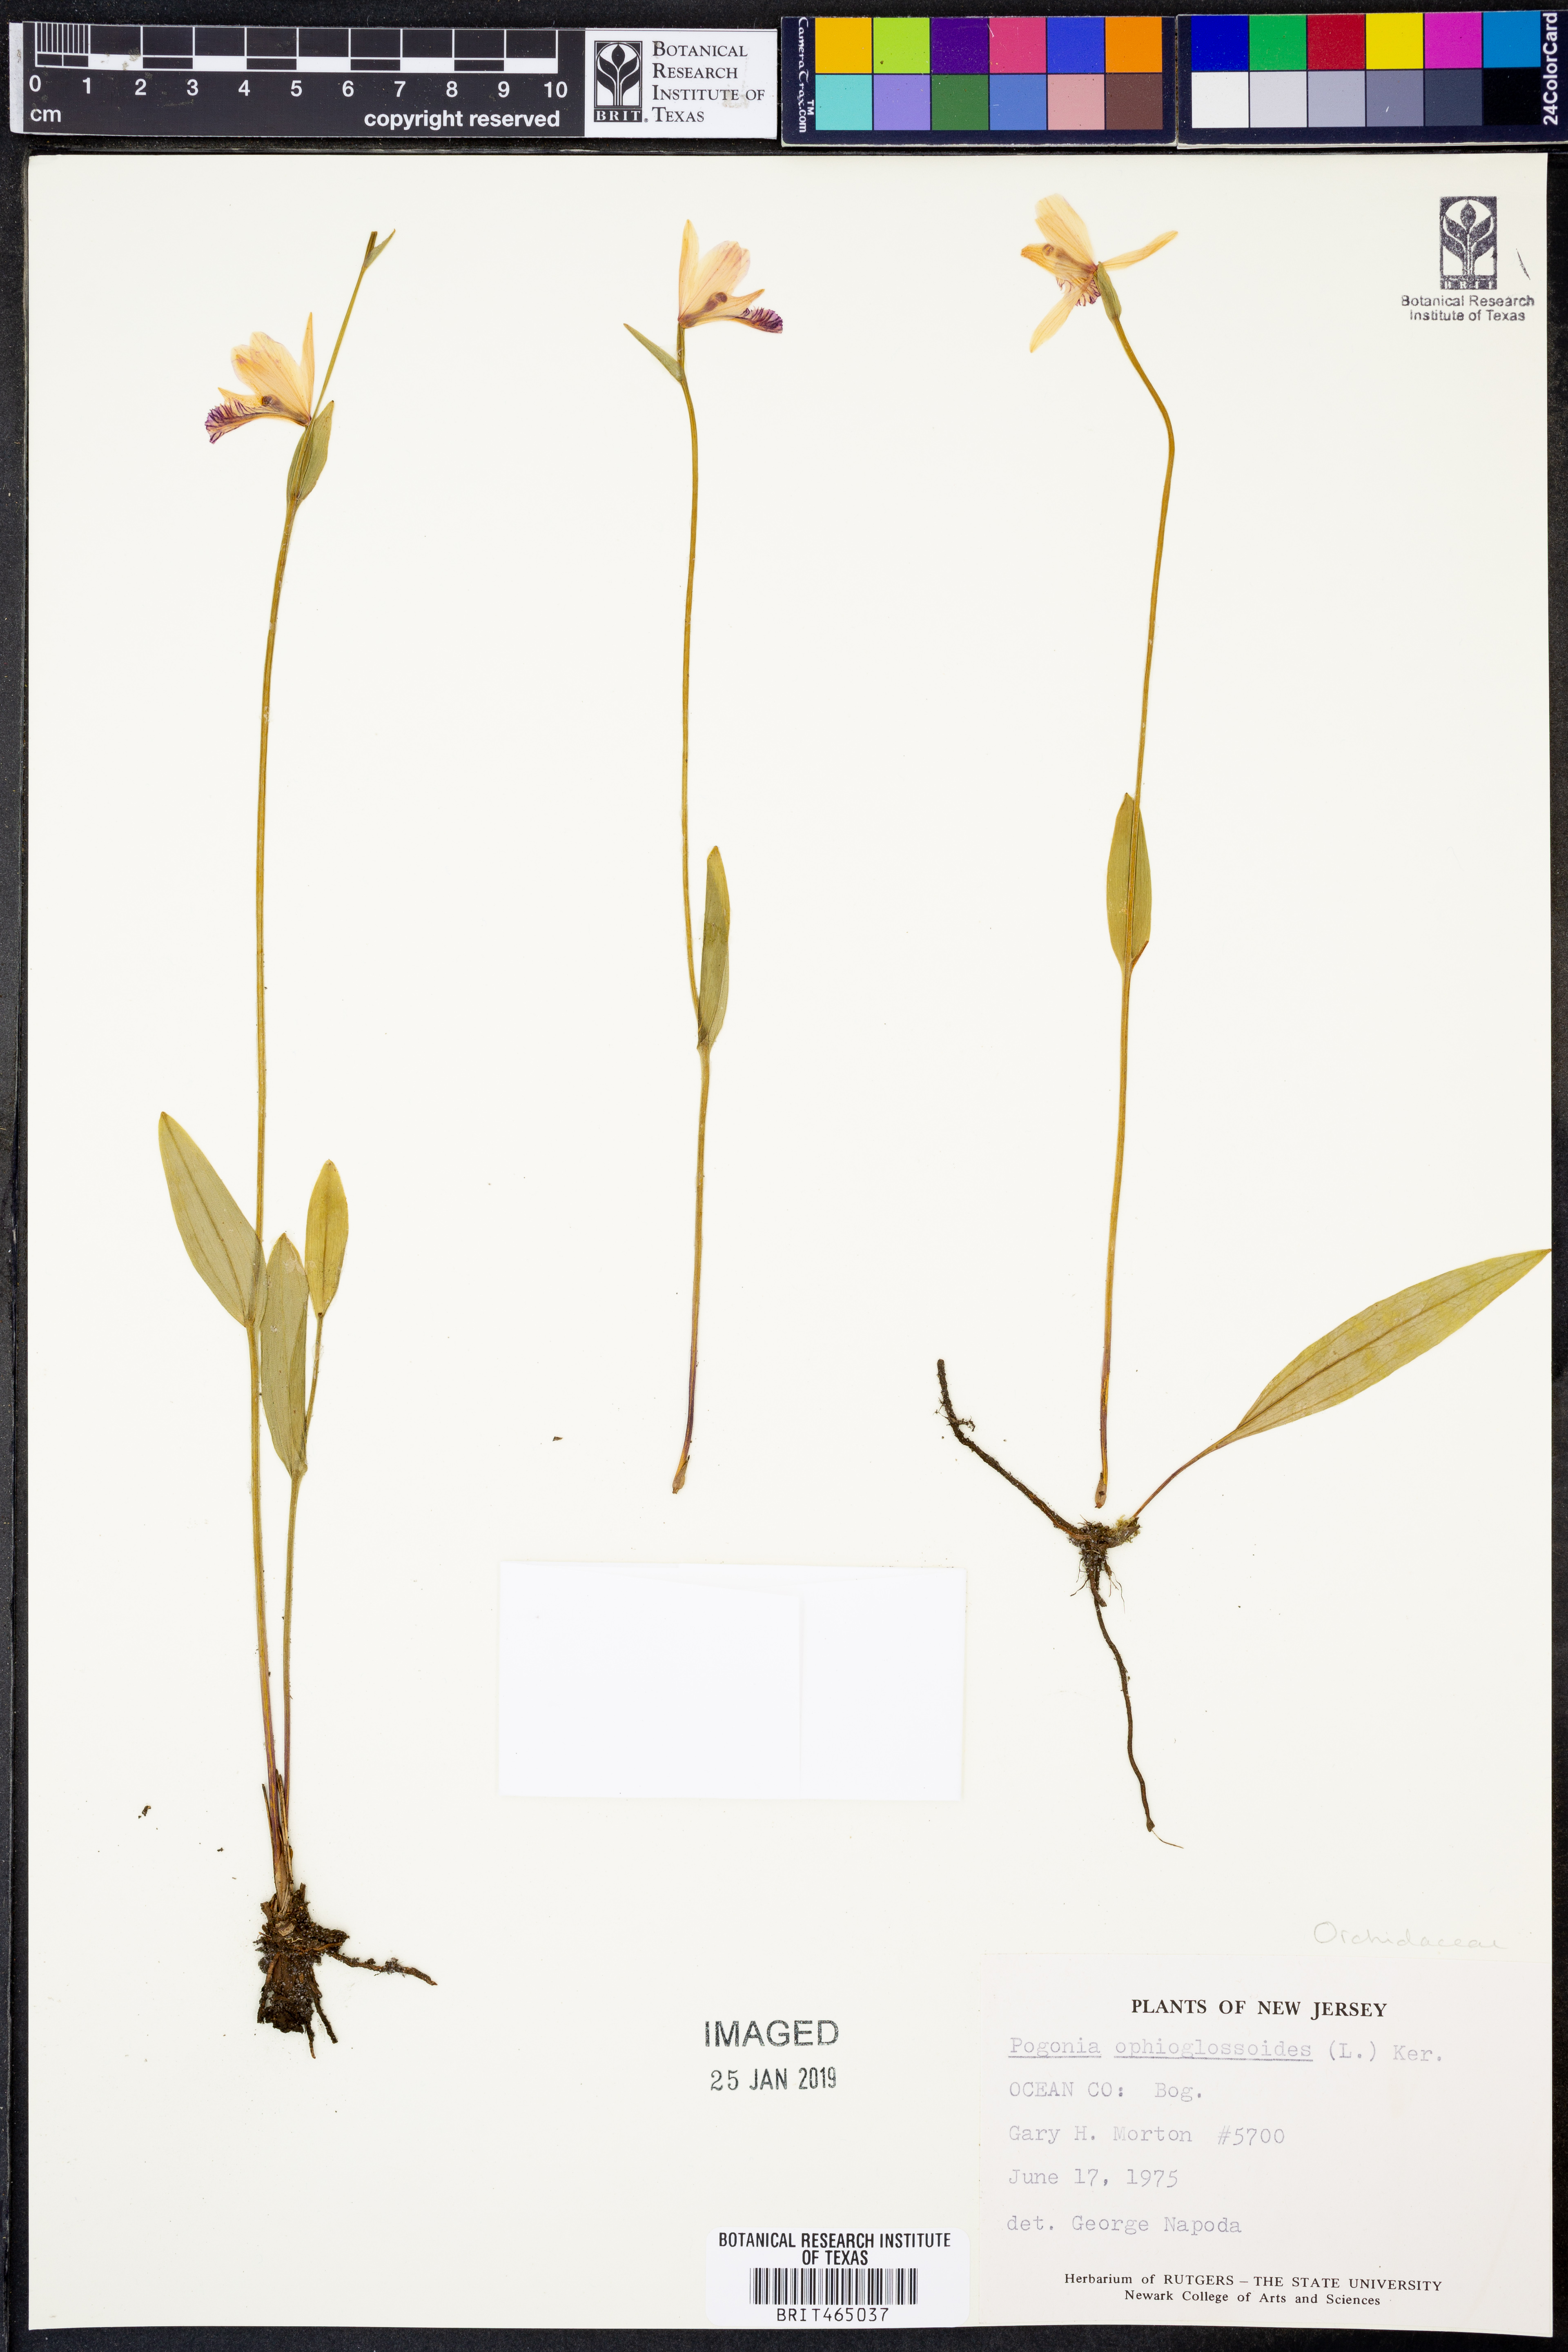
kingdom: Plantae
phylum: Tracheophyta
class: Liliopsida
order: Asparagales
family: Orchidaceae
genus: Pogonia
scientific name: Pogonia ophioglossoides
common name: Rose pogonia
